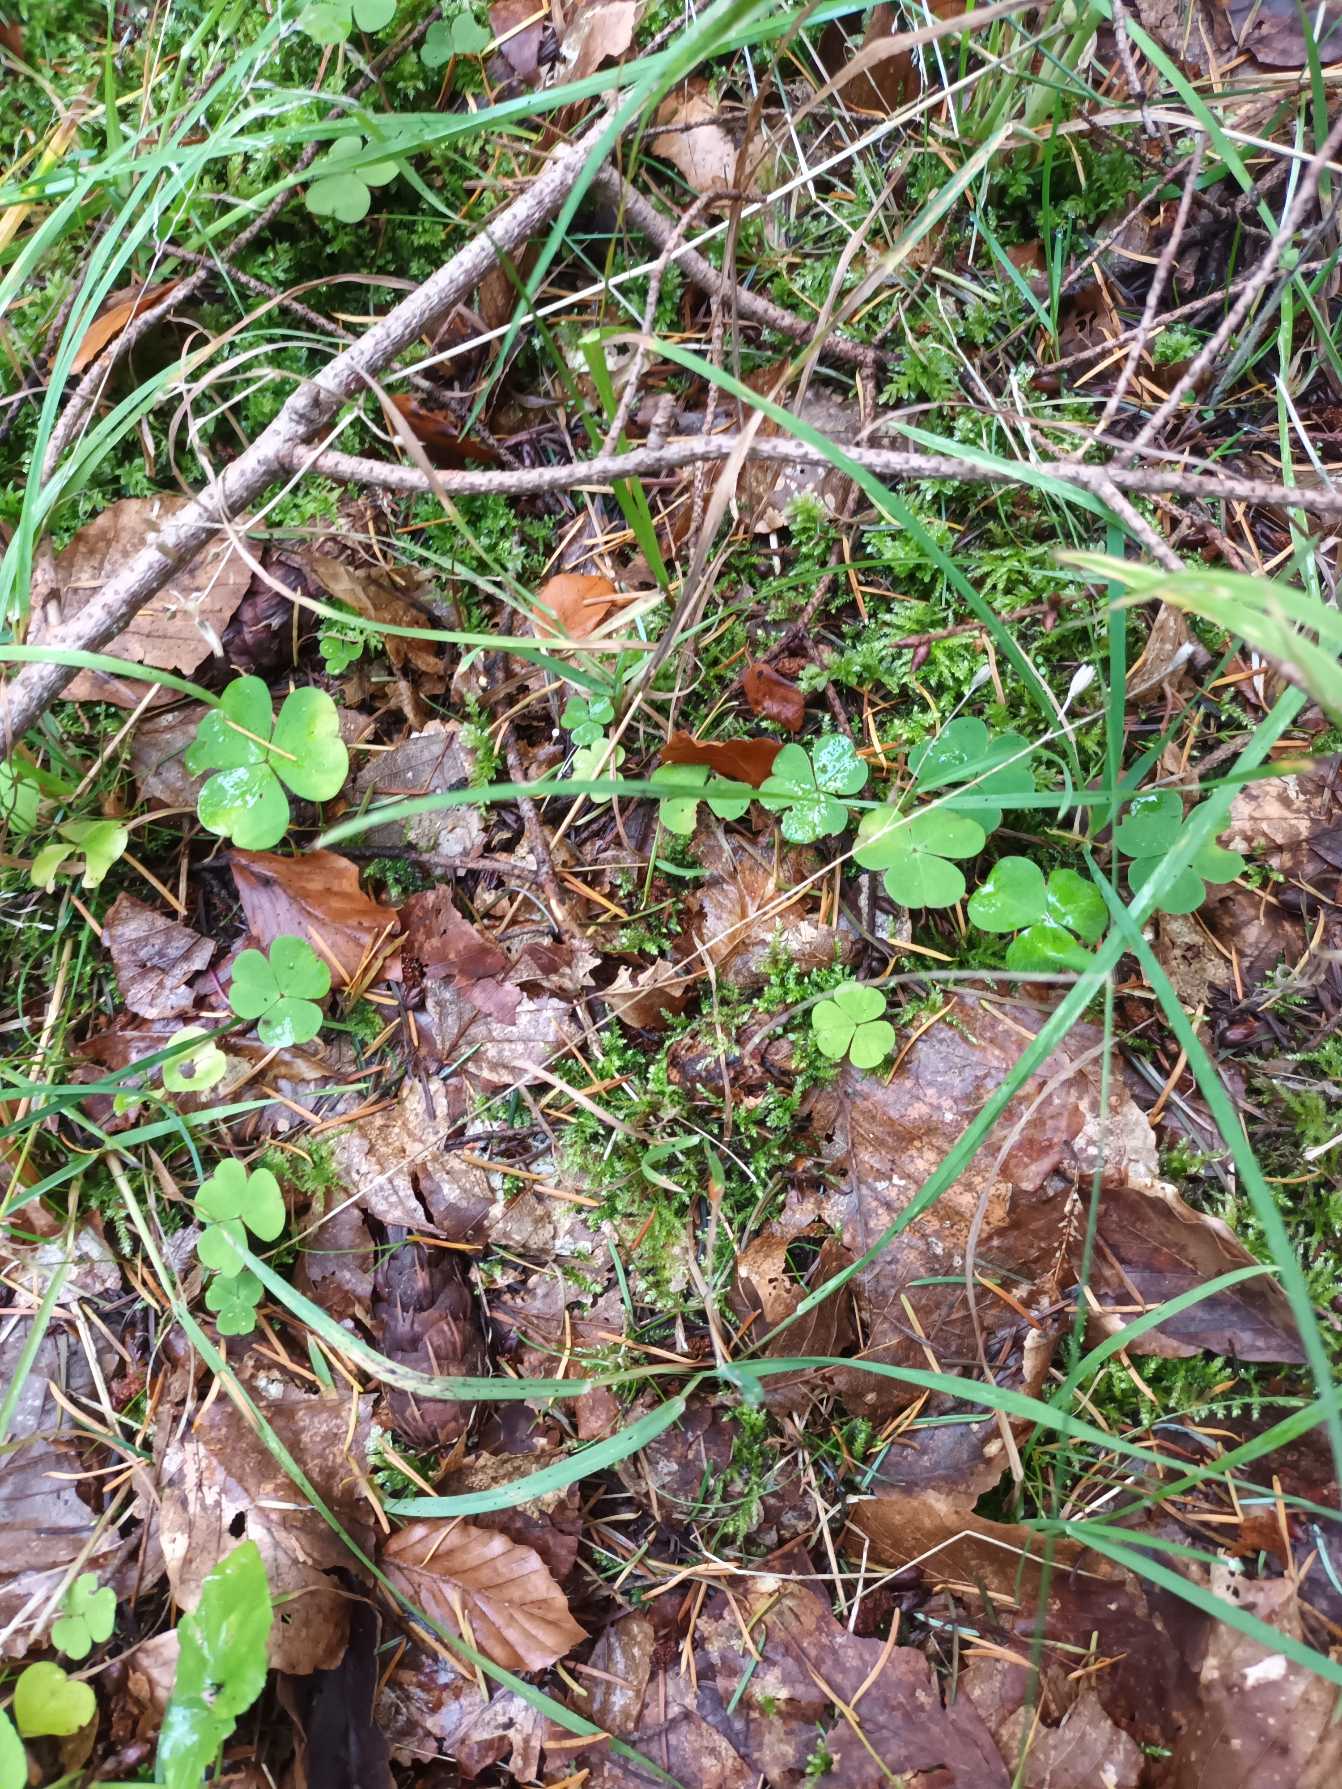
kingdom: Plantae
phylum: Tracheophyta
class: Magnoliopsida
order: Oxalidales
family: Oxalidaceae
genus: Oxalis
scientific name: Oxalis acetosella
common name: Skovsyre
